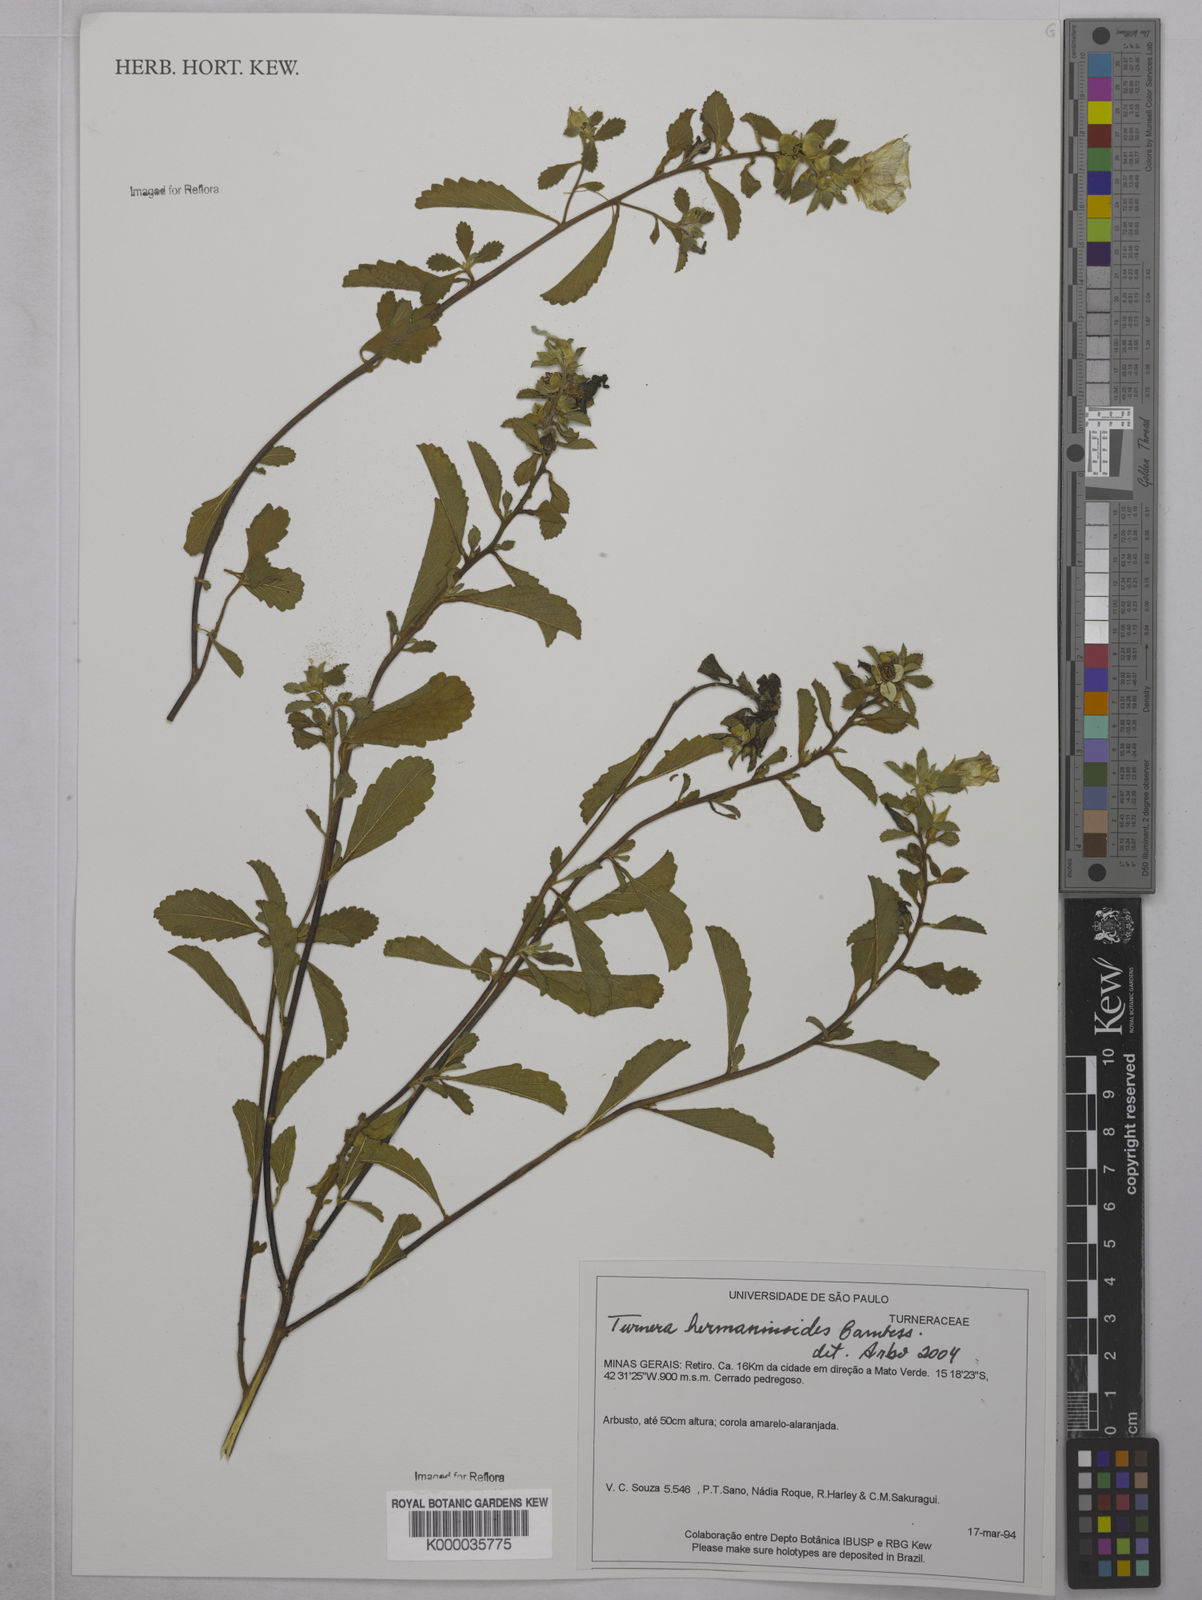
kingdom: Plantae
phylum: Tracheophyta
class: Magnoliopsida
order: Malpighiales
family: Turneraceae
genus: Turnera
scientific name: Turnera hermannioides
